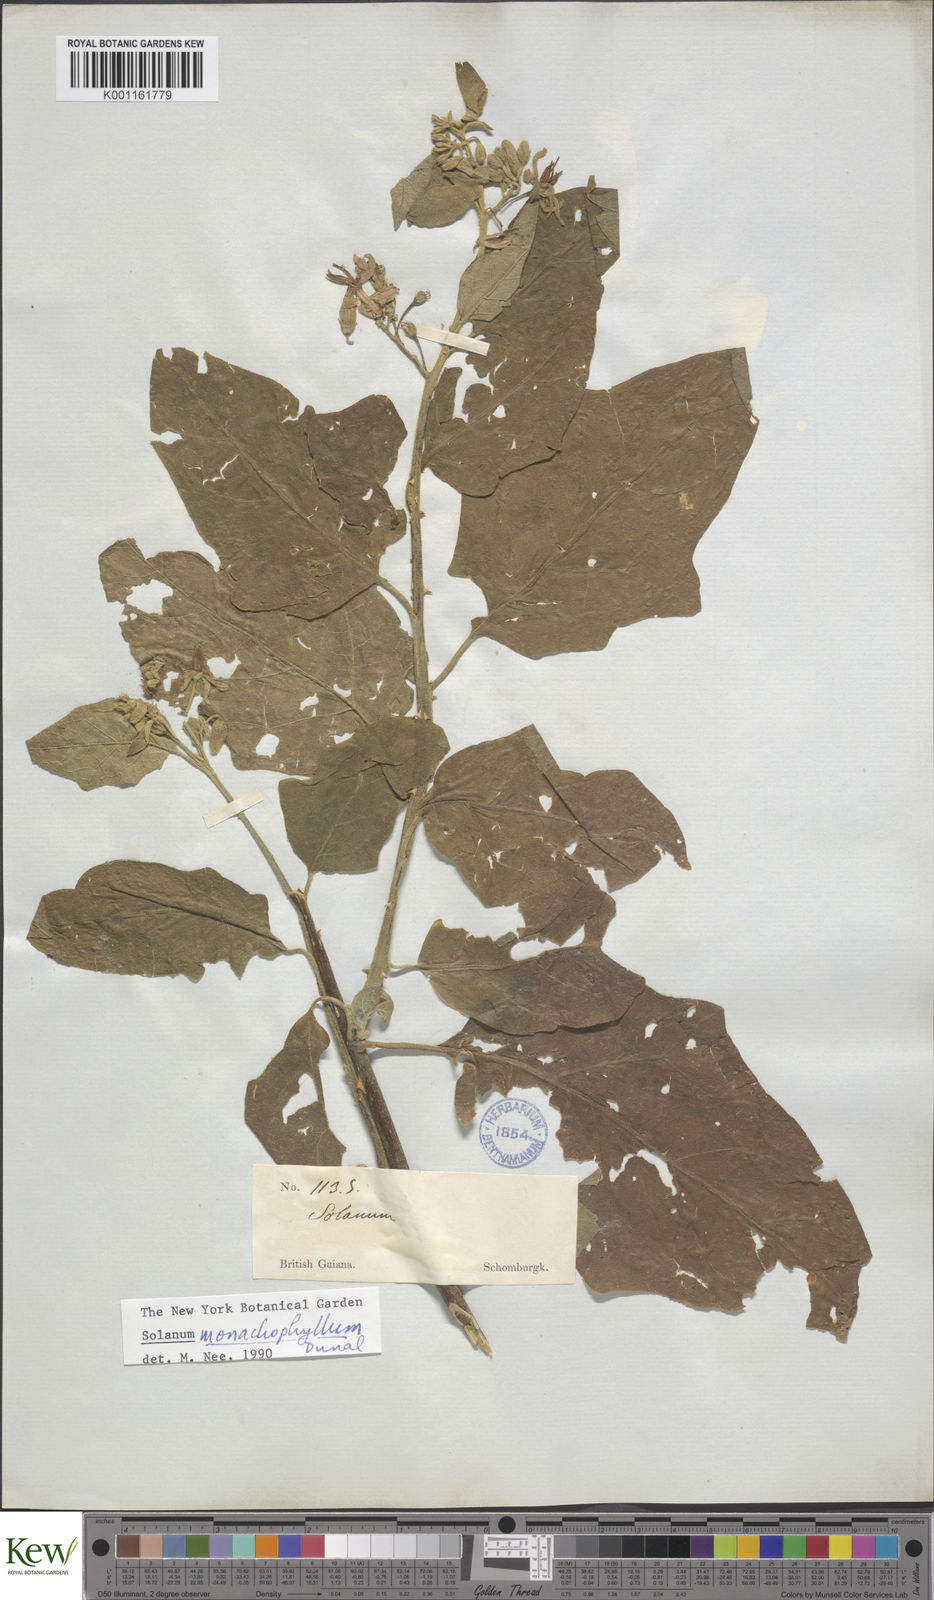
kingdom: Plantae
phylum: Tracheophyta
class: Magnoliopsida
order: Solanales
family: Solanaceae
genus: Solanum
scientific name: Solanum monachophyllum
